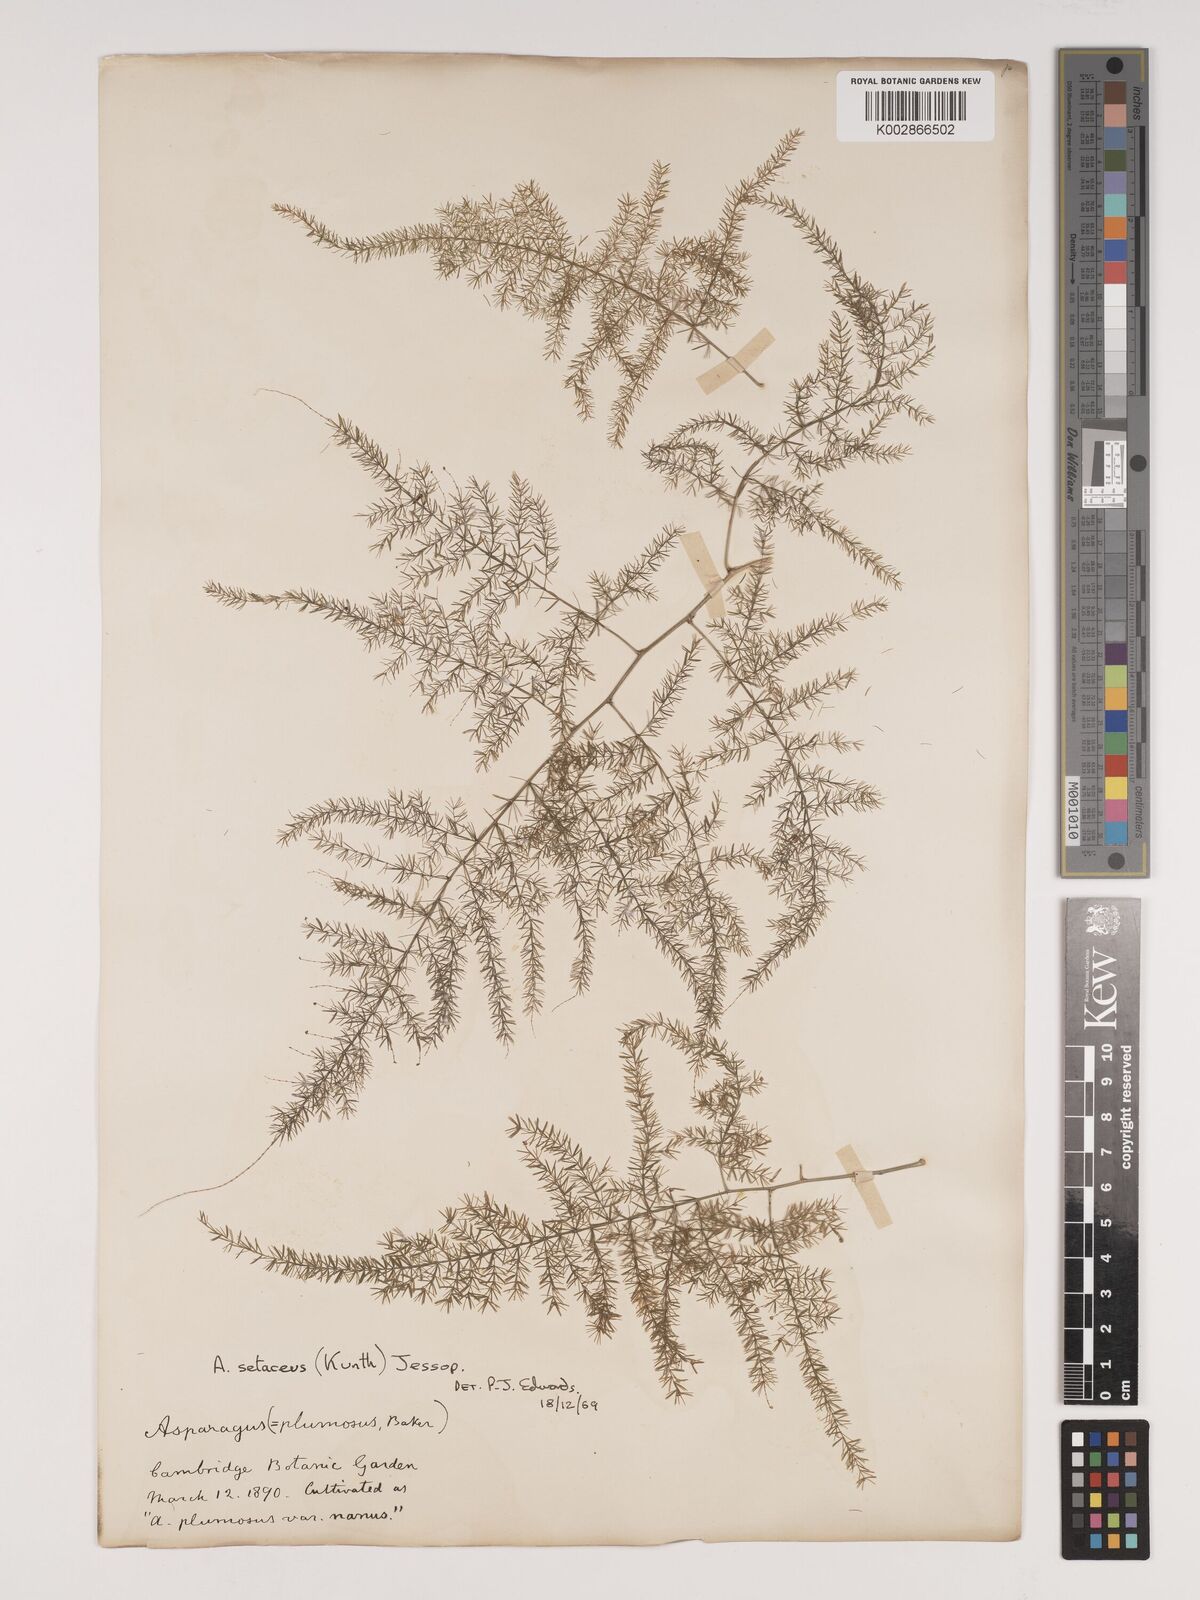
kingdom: Plantae
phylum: Tracheophyta
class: Liliopsida
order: Asparagales
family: Asparagaceae
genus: Asparagus
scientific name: Asparagus setaceus
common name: Common asparagus fern
